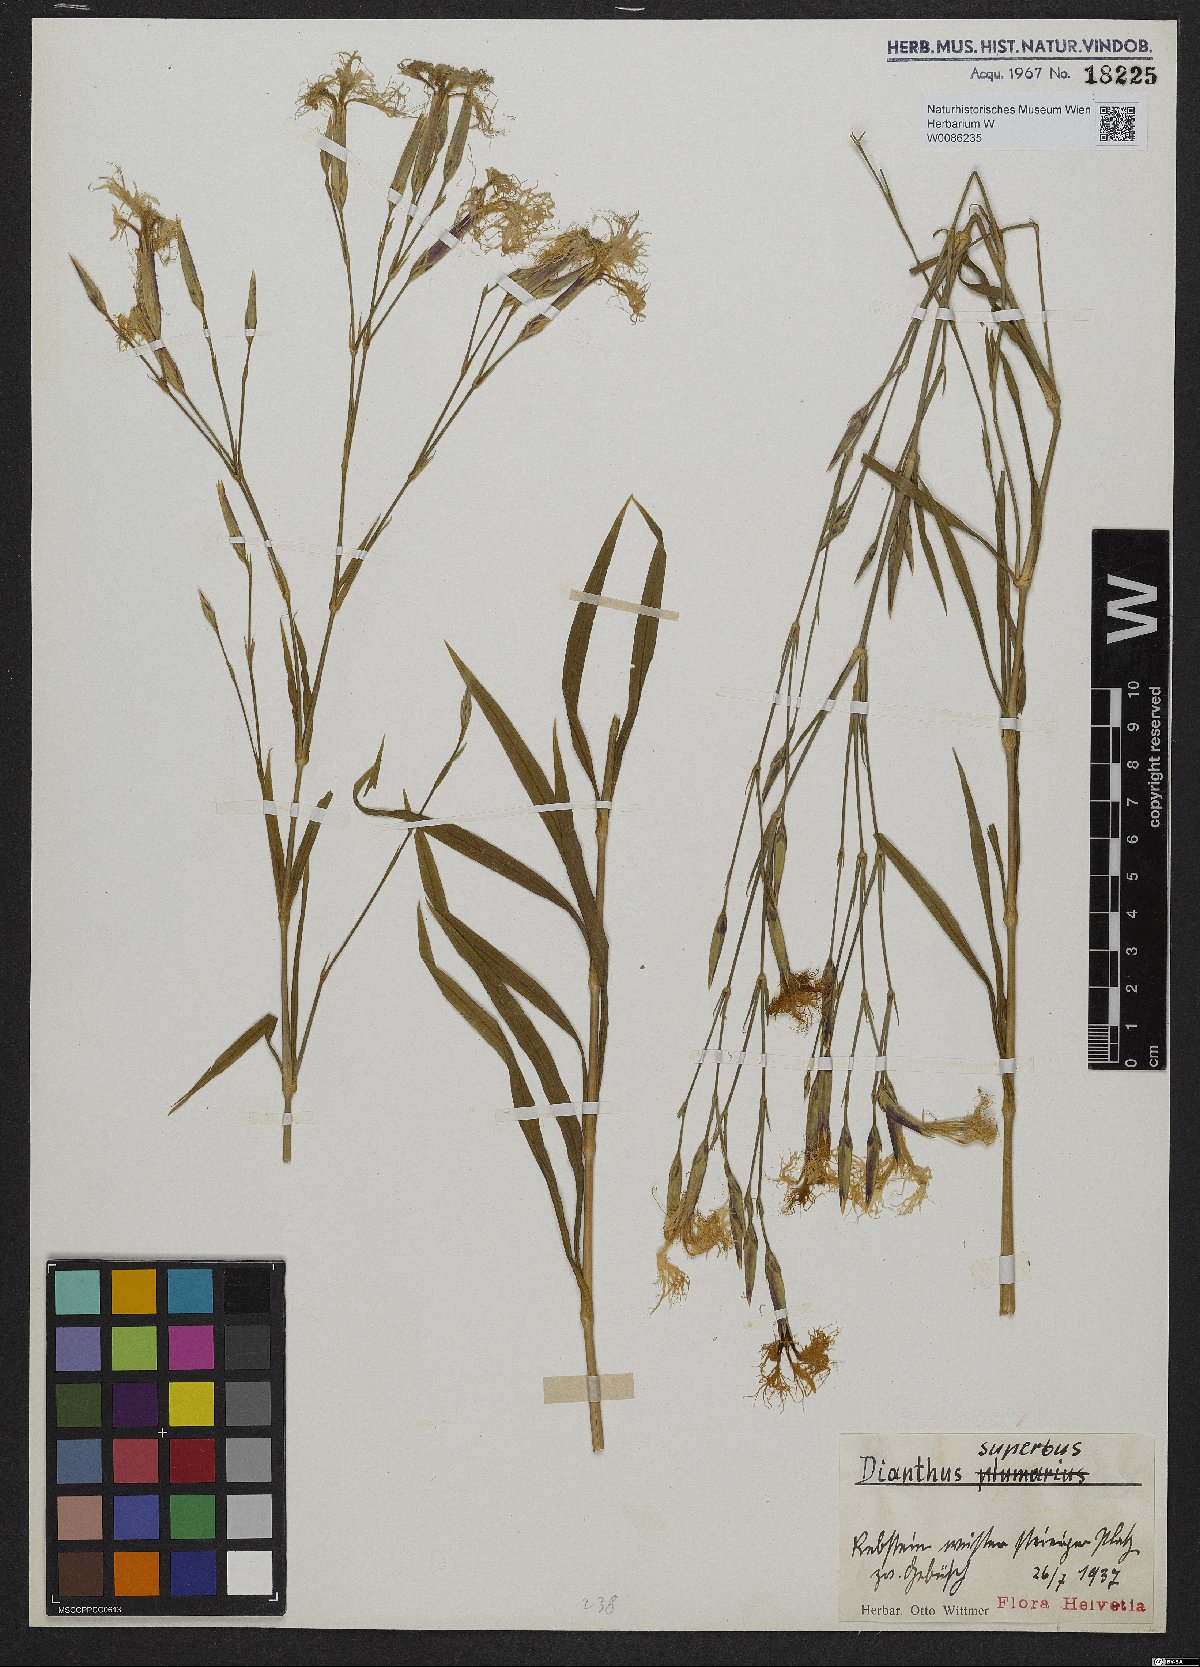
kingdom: Plantae
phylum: Tracheophyta
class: Magnoliopsida
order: Caryophyllales
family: Caryophyllaceae
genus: Dianthus
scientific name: Dianthus superbus
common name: Fringed pink
